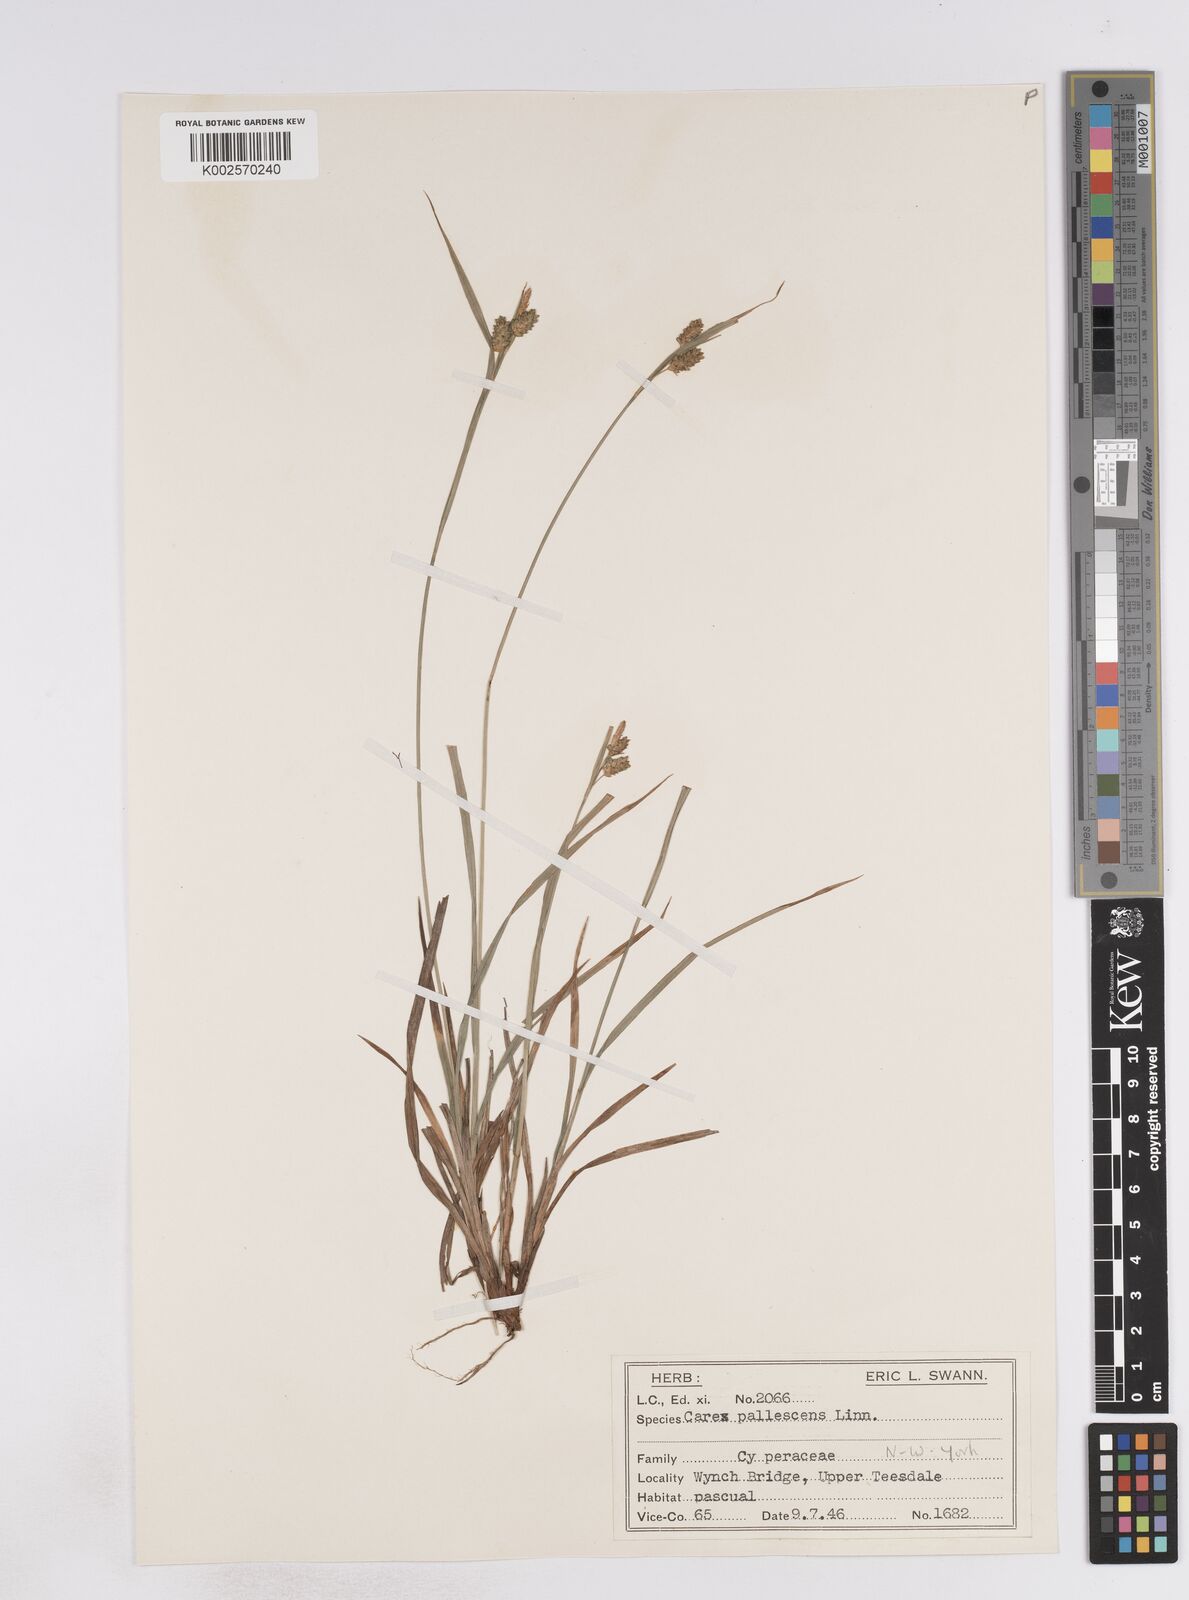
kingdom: Plantae
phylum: Tracheophyta
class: Liliopsida
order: Poales
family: Cyperaceae
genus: Carex
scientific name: Carex pallescens
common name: Pale sedge
